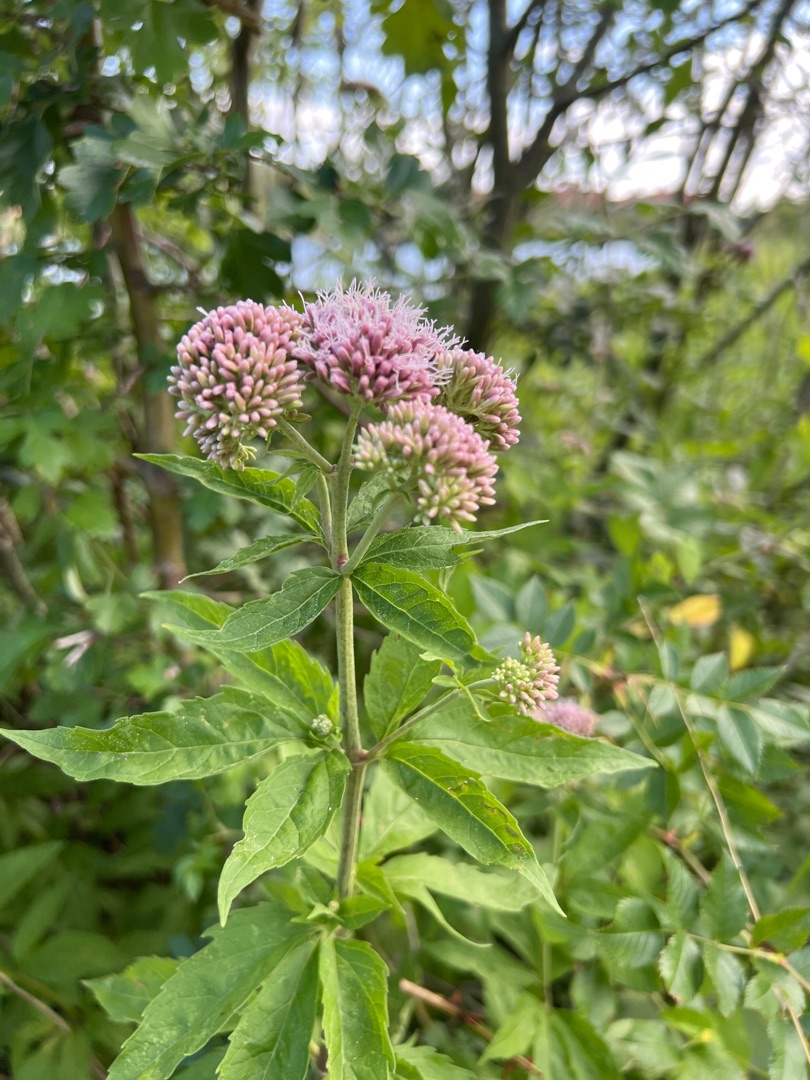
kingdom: Plantae
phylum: Tracheophyta
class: Magnoliopsida
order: Asterales
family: Asteraceae
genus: Eupatorium
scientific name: Eupatorium cannabinum
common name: Hjortetrøst
